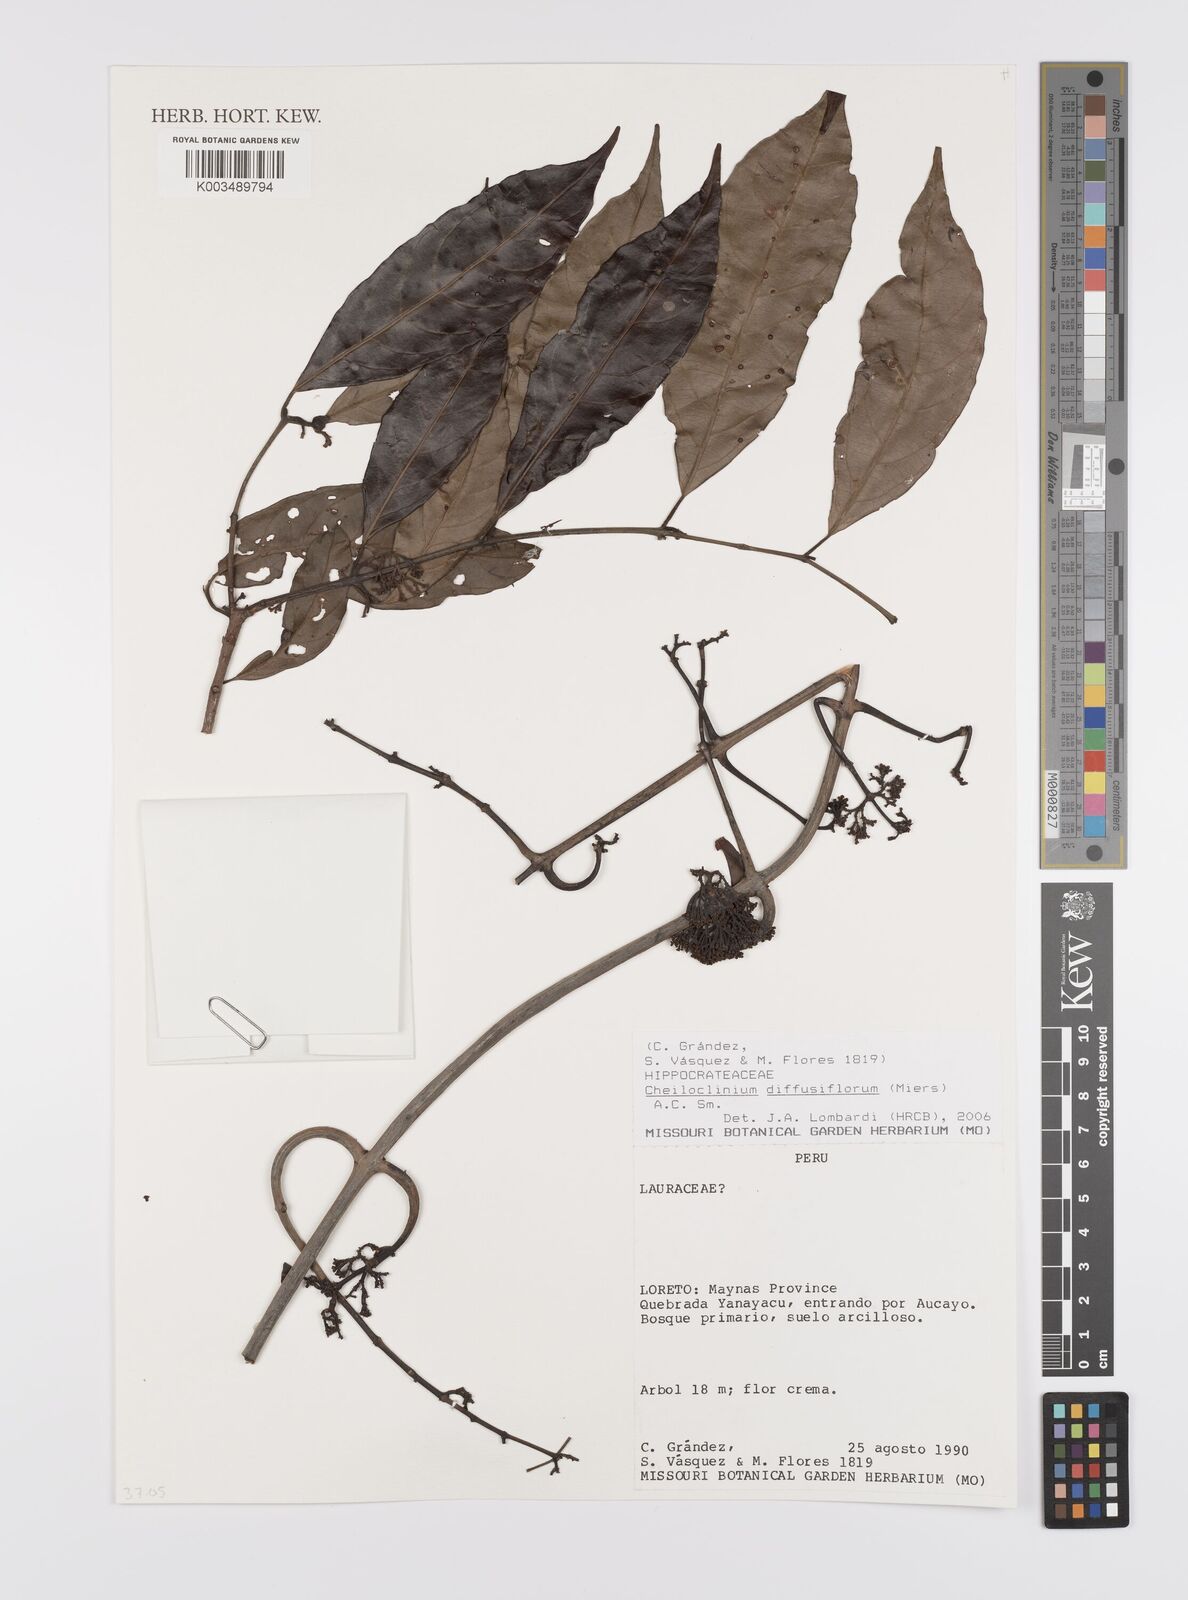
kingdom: Plantae
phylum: Tracheophyta
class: Magnoliopsida
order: Celastrales
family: Celastraceae
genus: Cheiloclinium
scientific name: Cheiloclinium serratum
